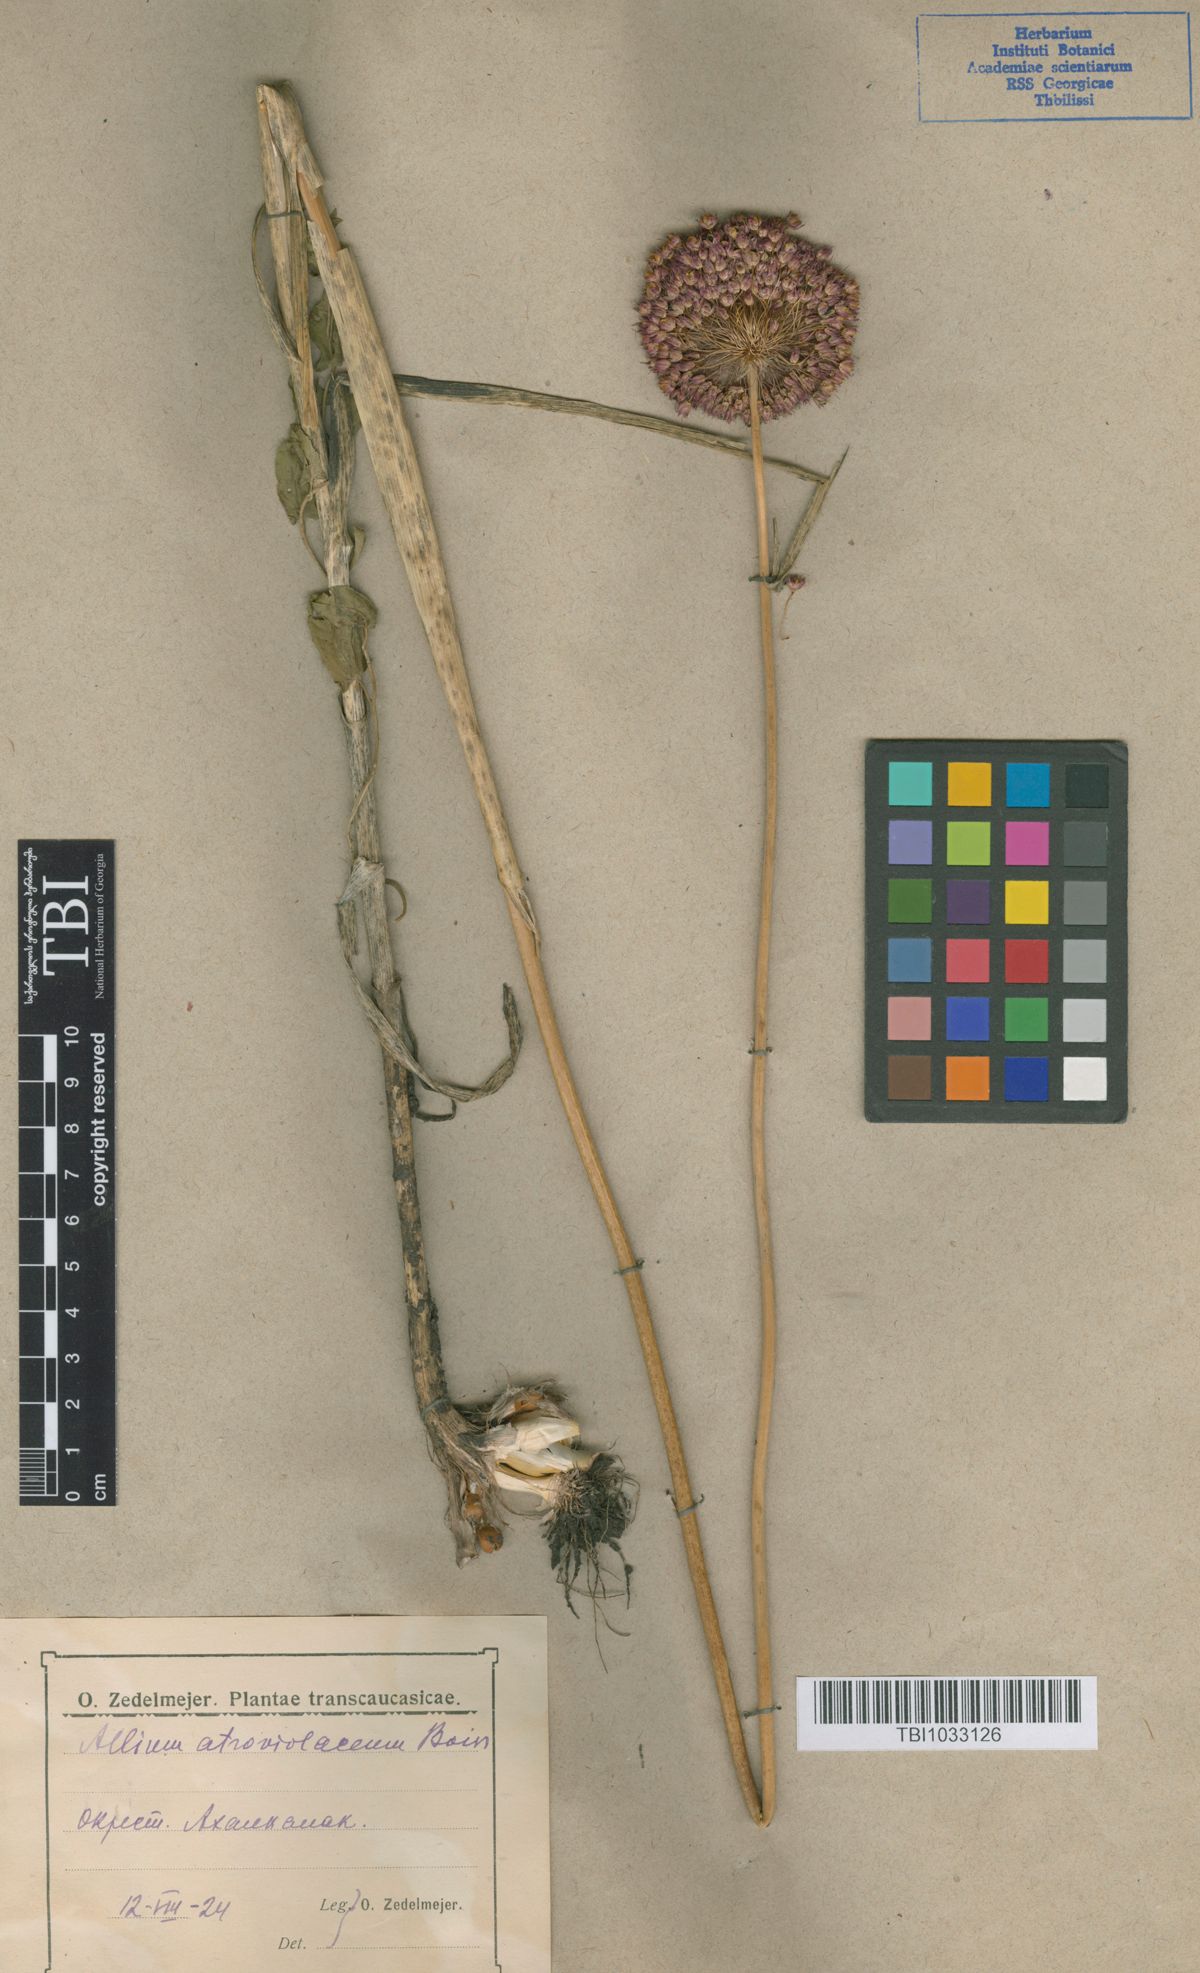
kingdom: Plantae
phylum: Tracheophyta
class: Liliopsida
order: Asparagales
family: Amaryllidaceae
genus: Allium
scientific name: Allium atroviolaceum
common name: Broadleaf wild leek
